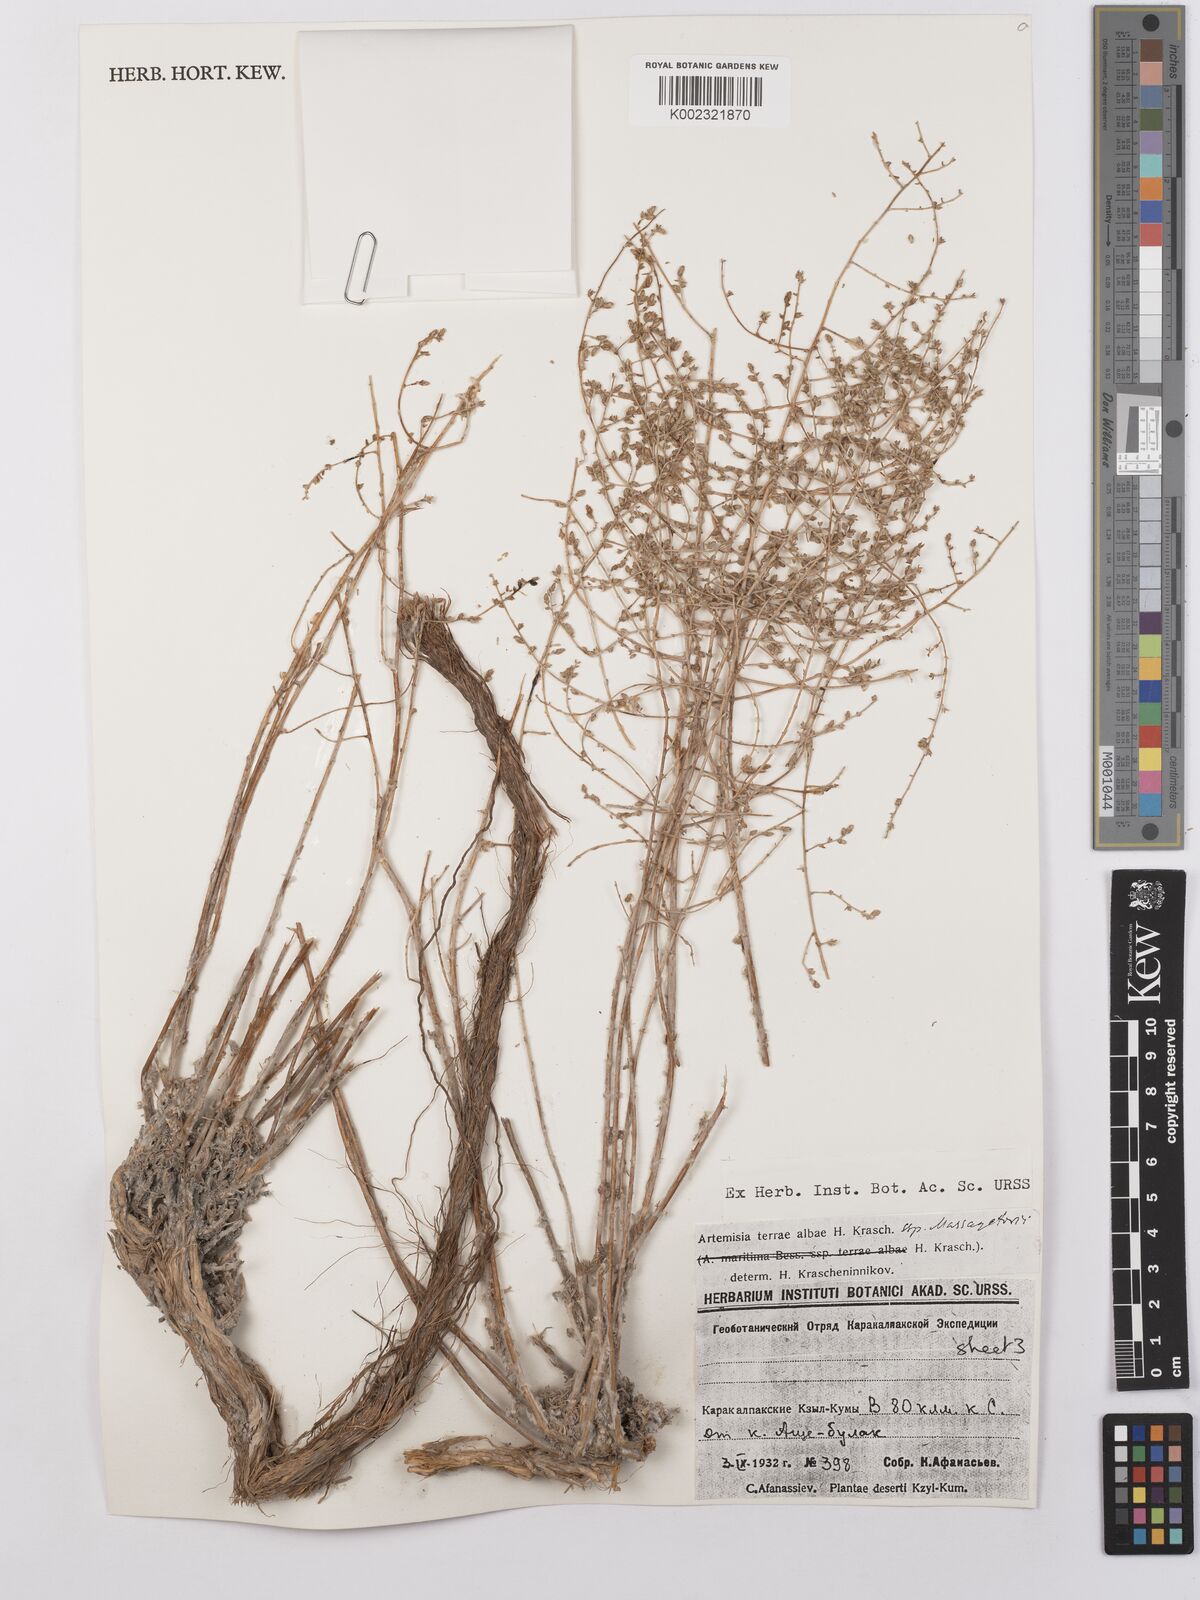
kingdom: Plantae
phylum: Tracheophyta
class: Magnoliopsida
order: Asterales
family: Asteraceae
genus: Artemisia
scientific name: Artemisia terrae-albae
